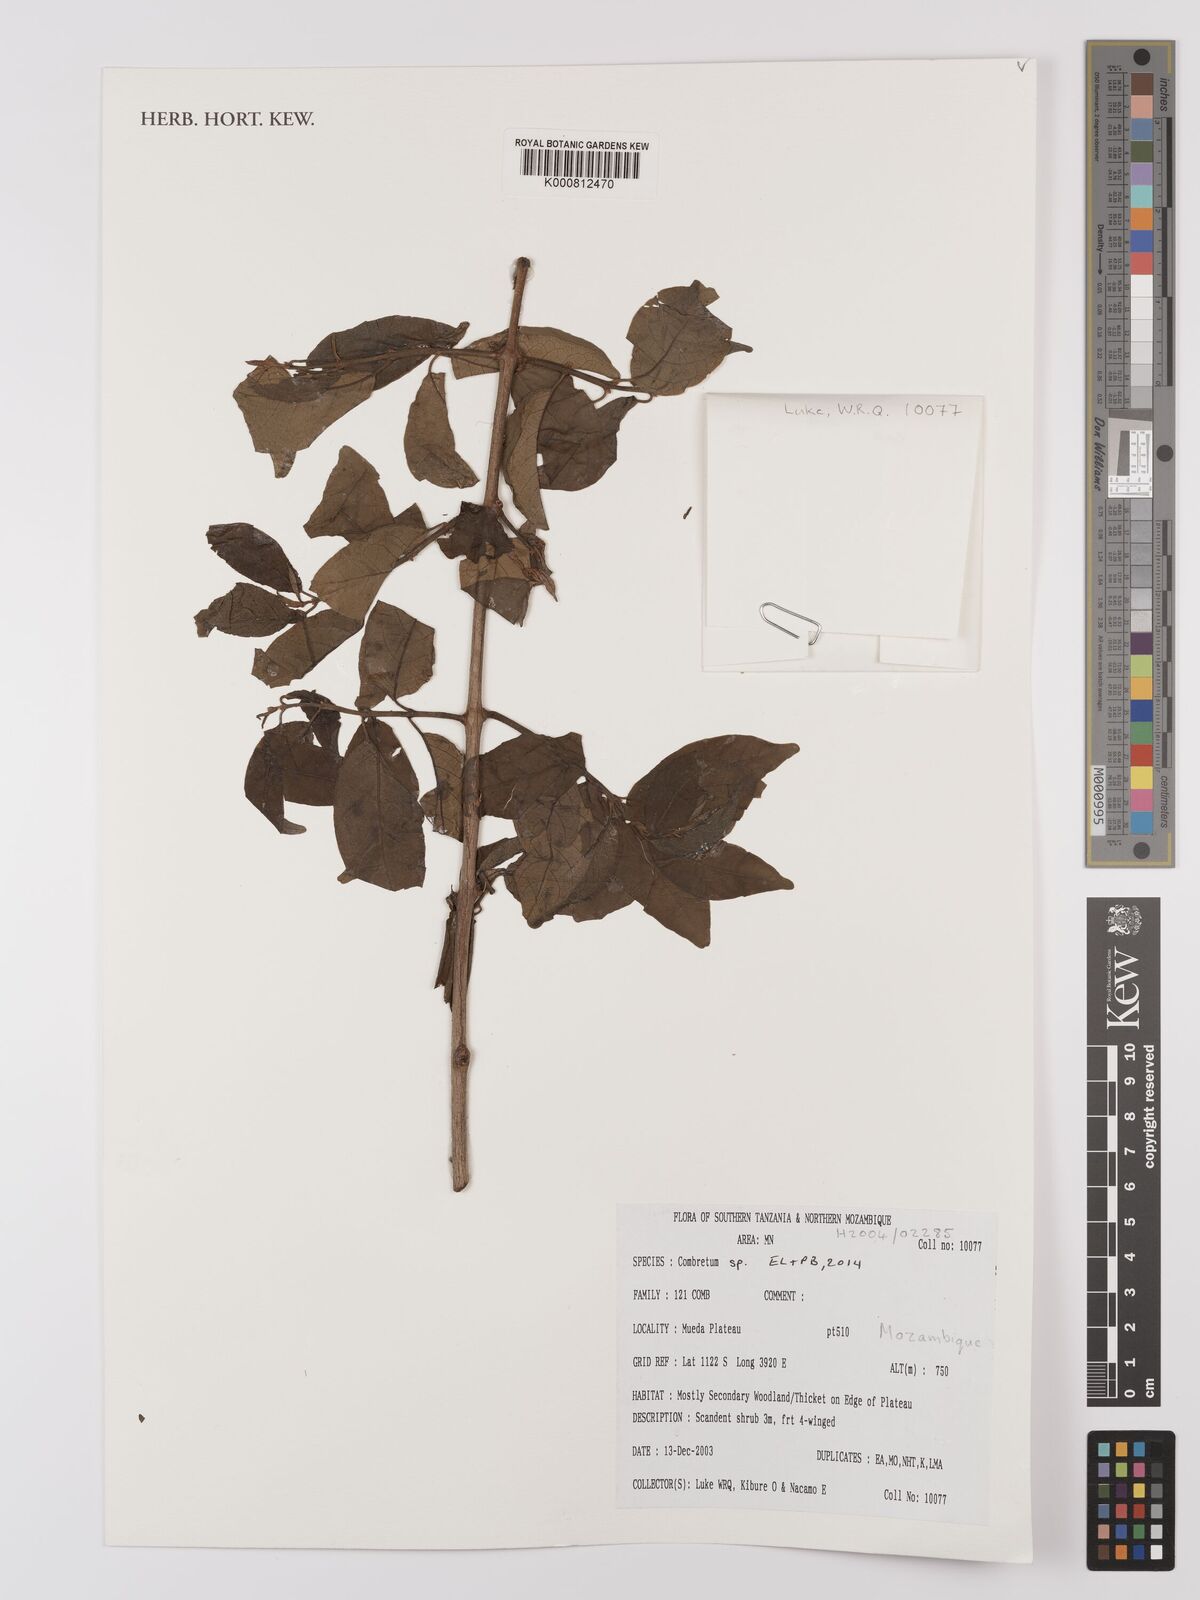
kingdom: Plantae
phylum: Tracheophyta
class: Magnoliopsida
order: Myrtales
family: Combretaceae
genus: Combretum
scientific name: Combretum
